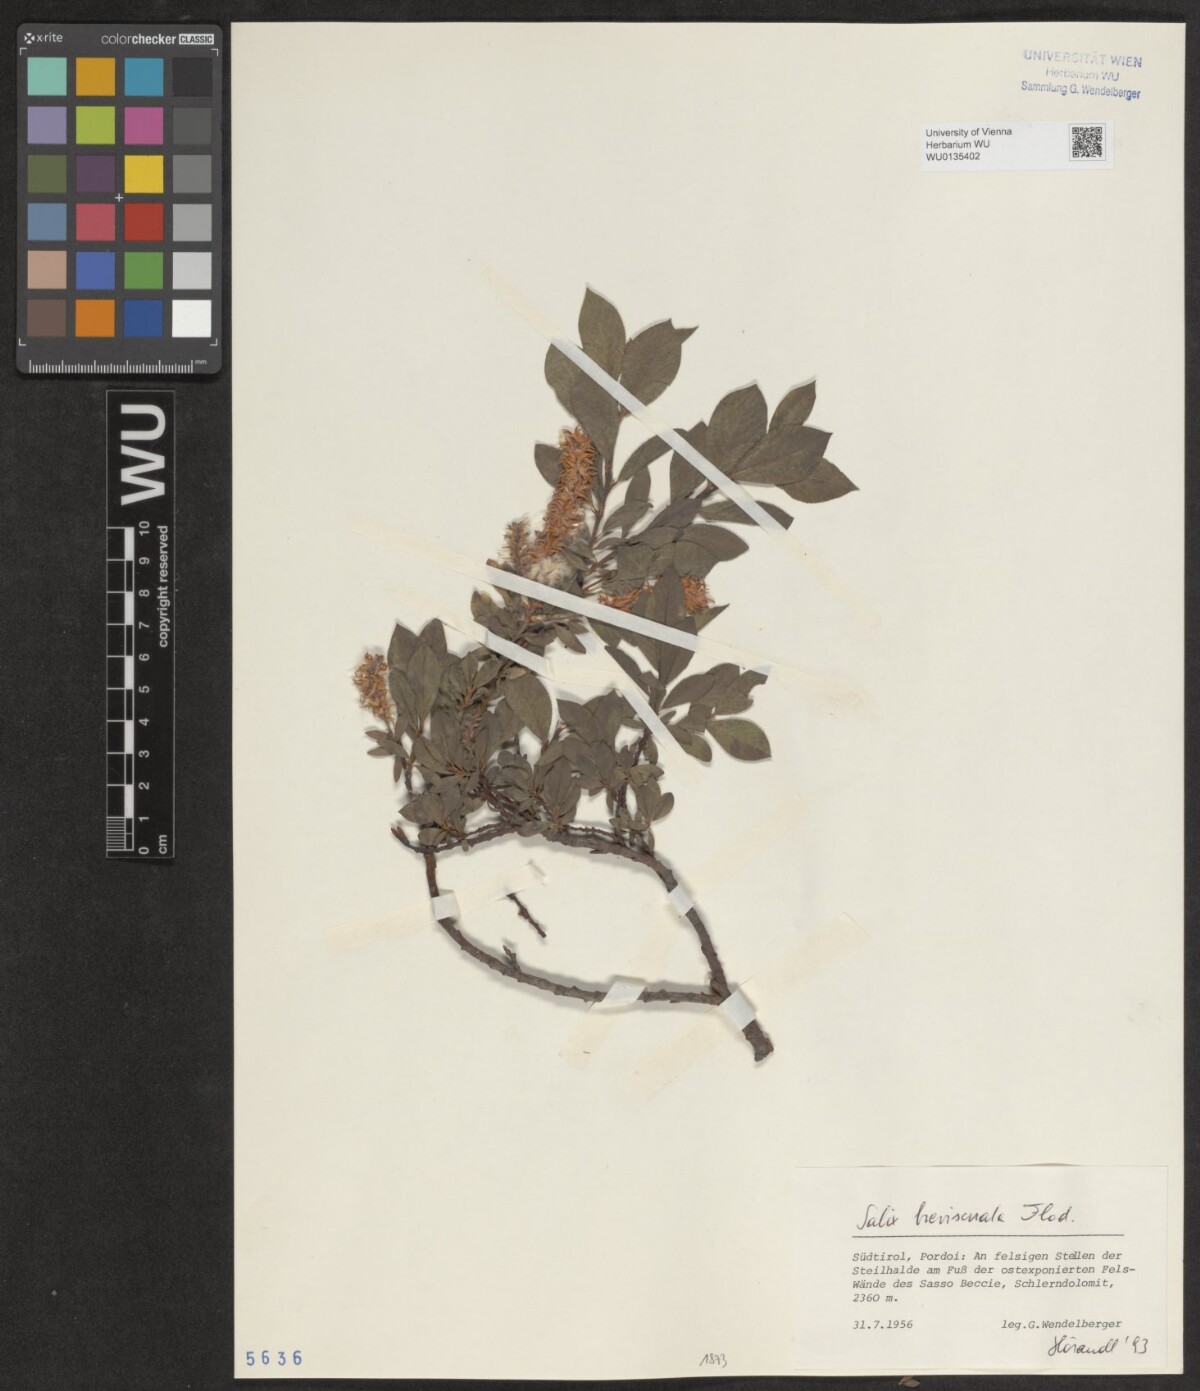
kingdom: Plantae
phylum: Tracheophyta
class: Magnoliopsida
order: Malpighiales
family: Salicaceae
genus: Salix
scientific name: Salix breviserrata
